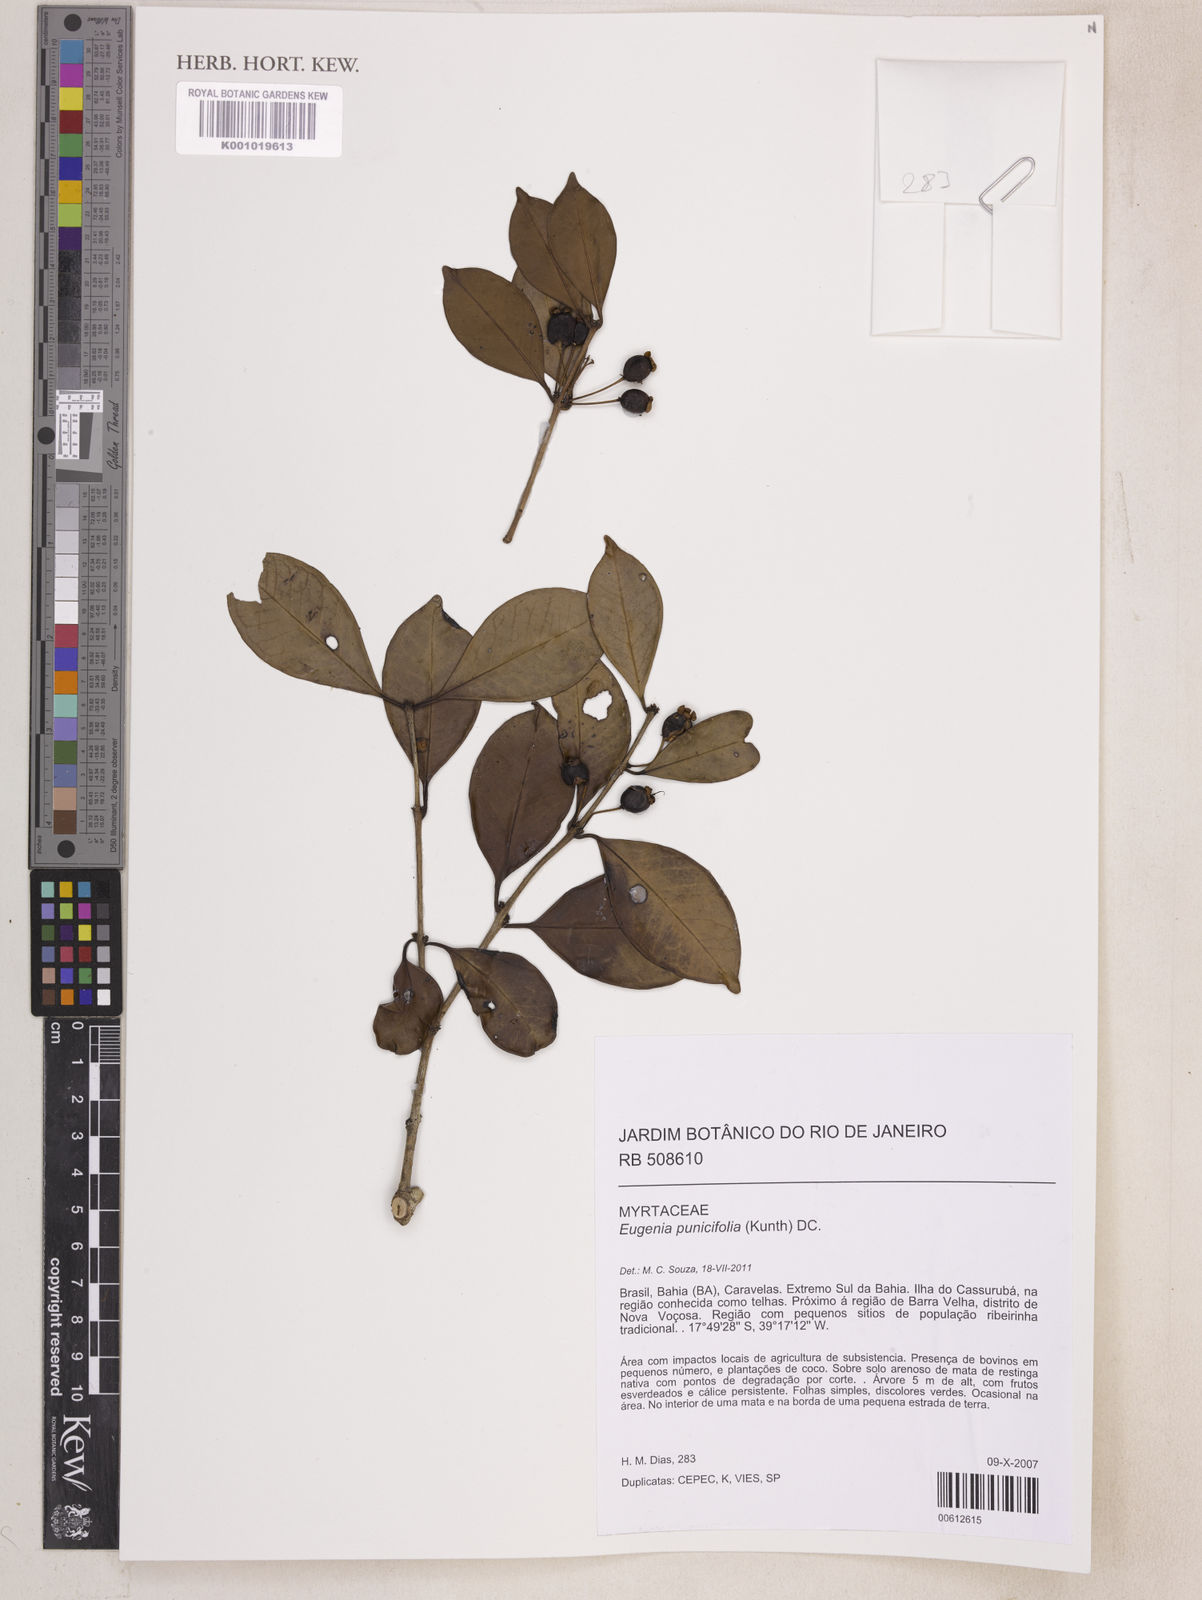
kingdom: Plantae
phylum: Tracheophyta
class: Magnoliopsida
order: Myrtales
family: Myrtaceae
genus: Eugenia
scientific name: Eugenia punicifolia
